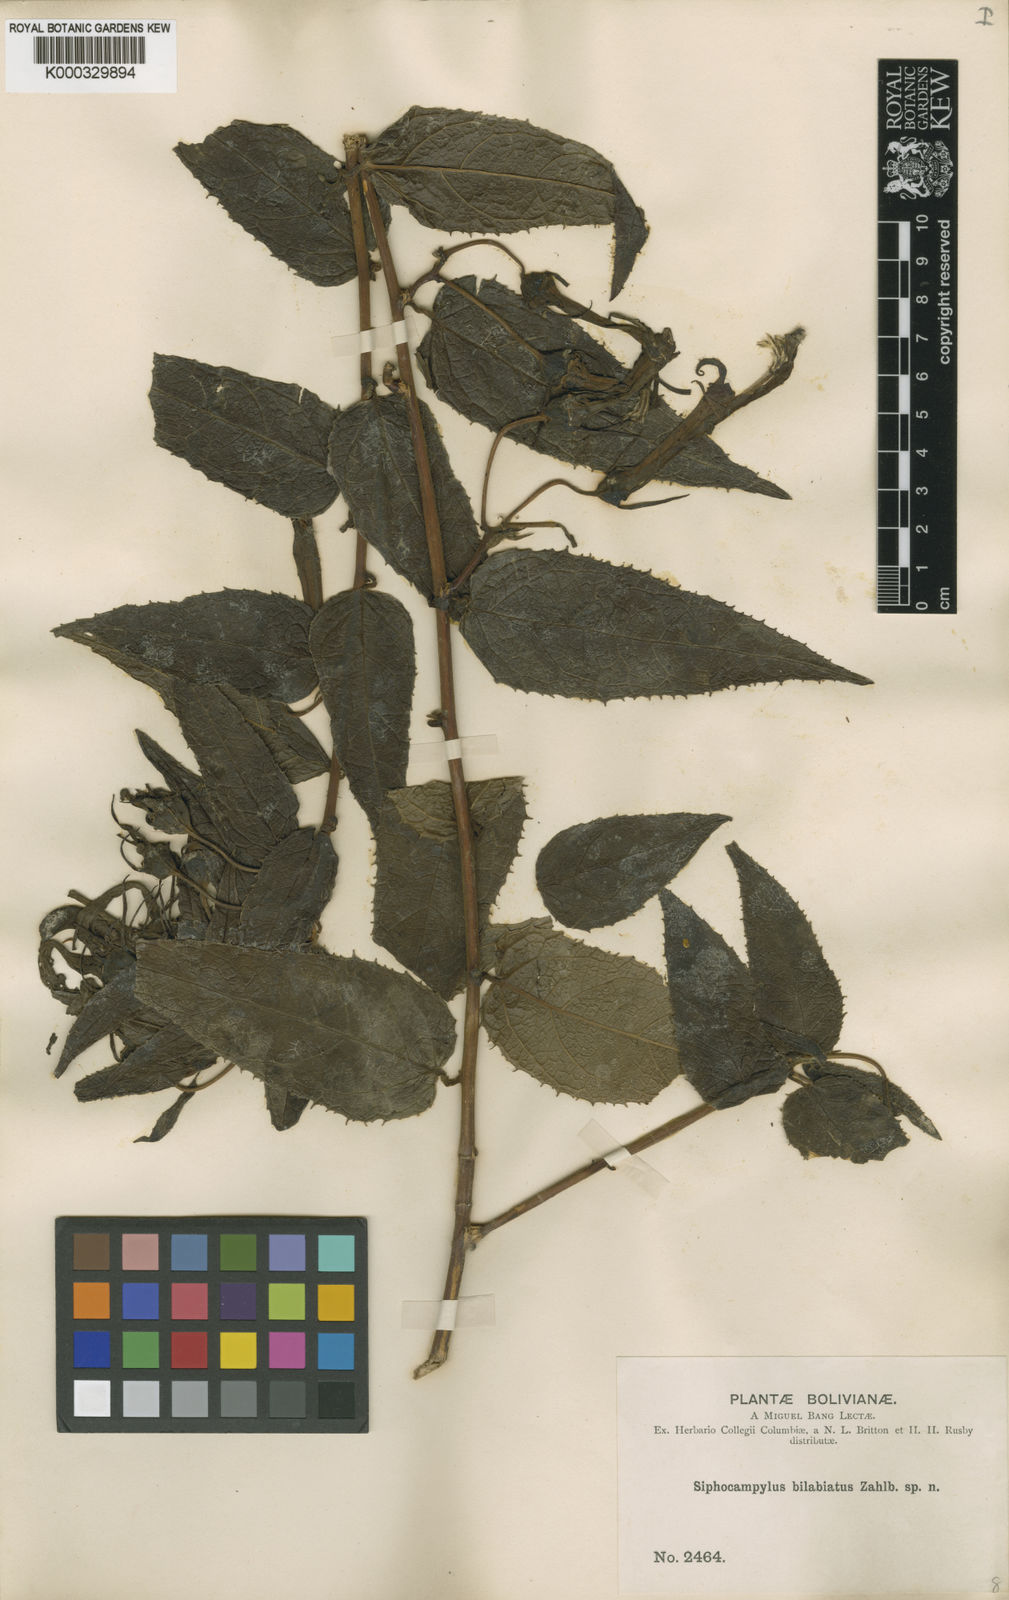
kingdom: Plantae
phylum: Tracheophyta
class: Magnoliopsida
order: Asterales
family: Campanulaceae
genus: Siphocampylus
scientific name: Siphocampylus bilabiatus
